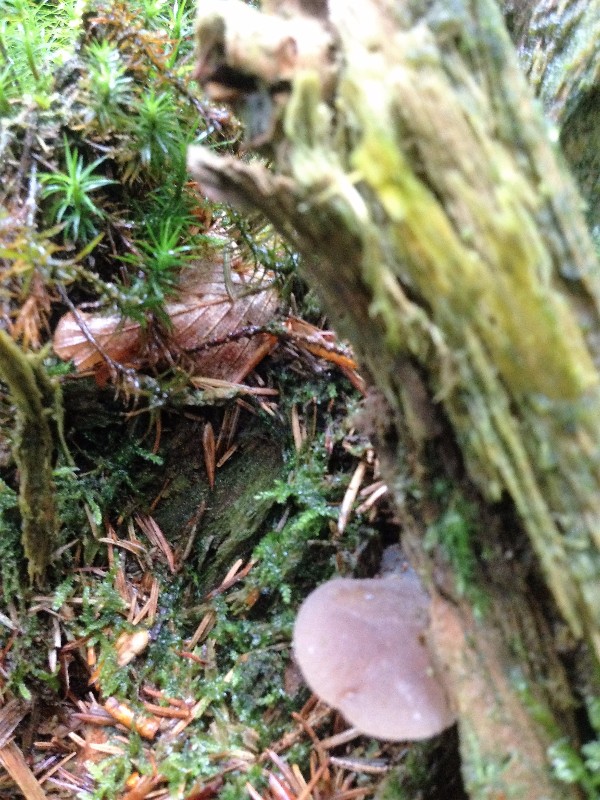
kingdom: Fungi
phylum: Basidiomycota
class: Agaricomycetes
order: Auriculariales
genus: Pseudohydnum
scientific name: Pseudohydnum gelatinosum
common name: bævretand
